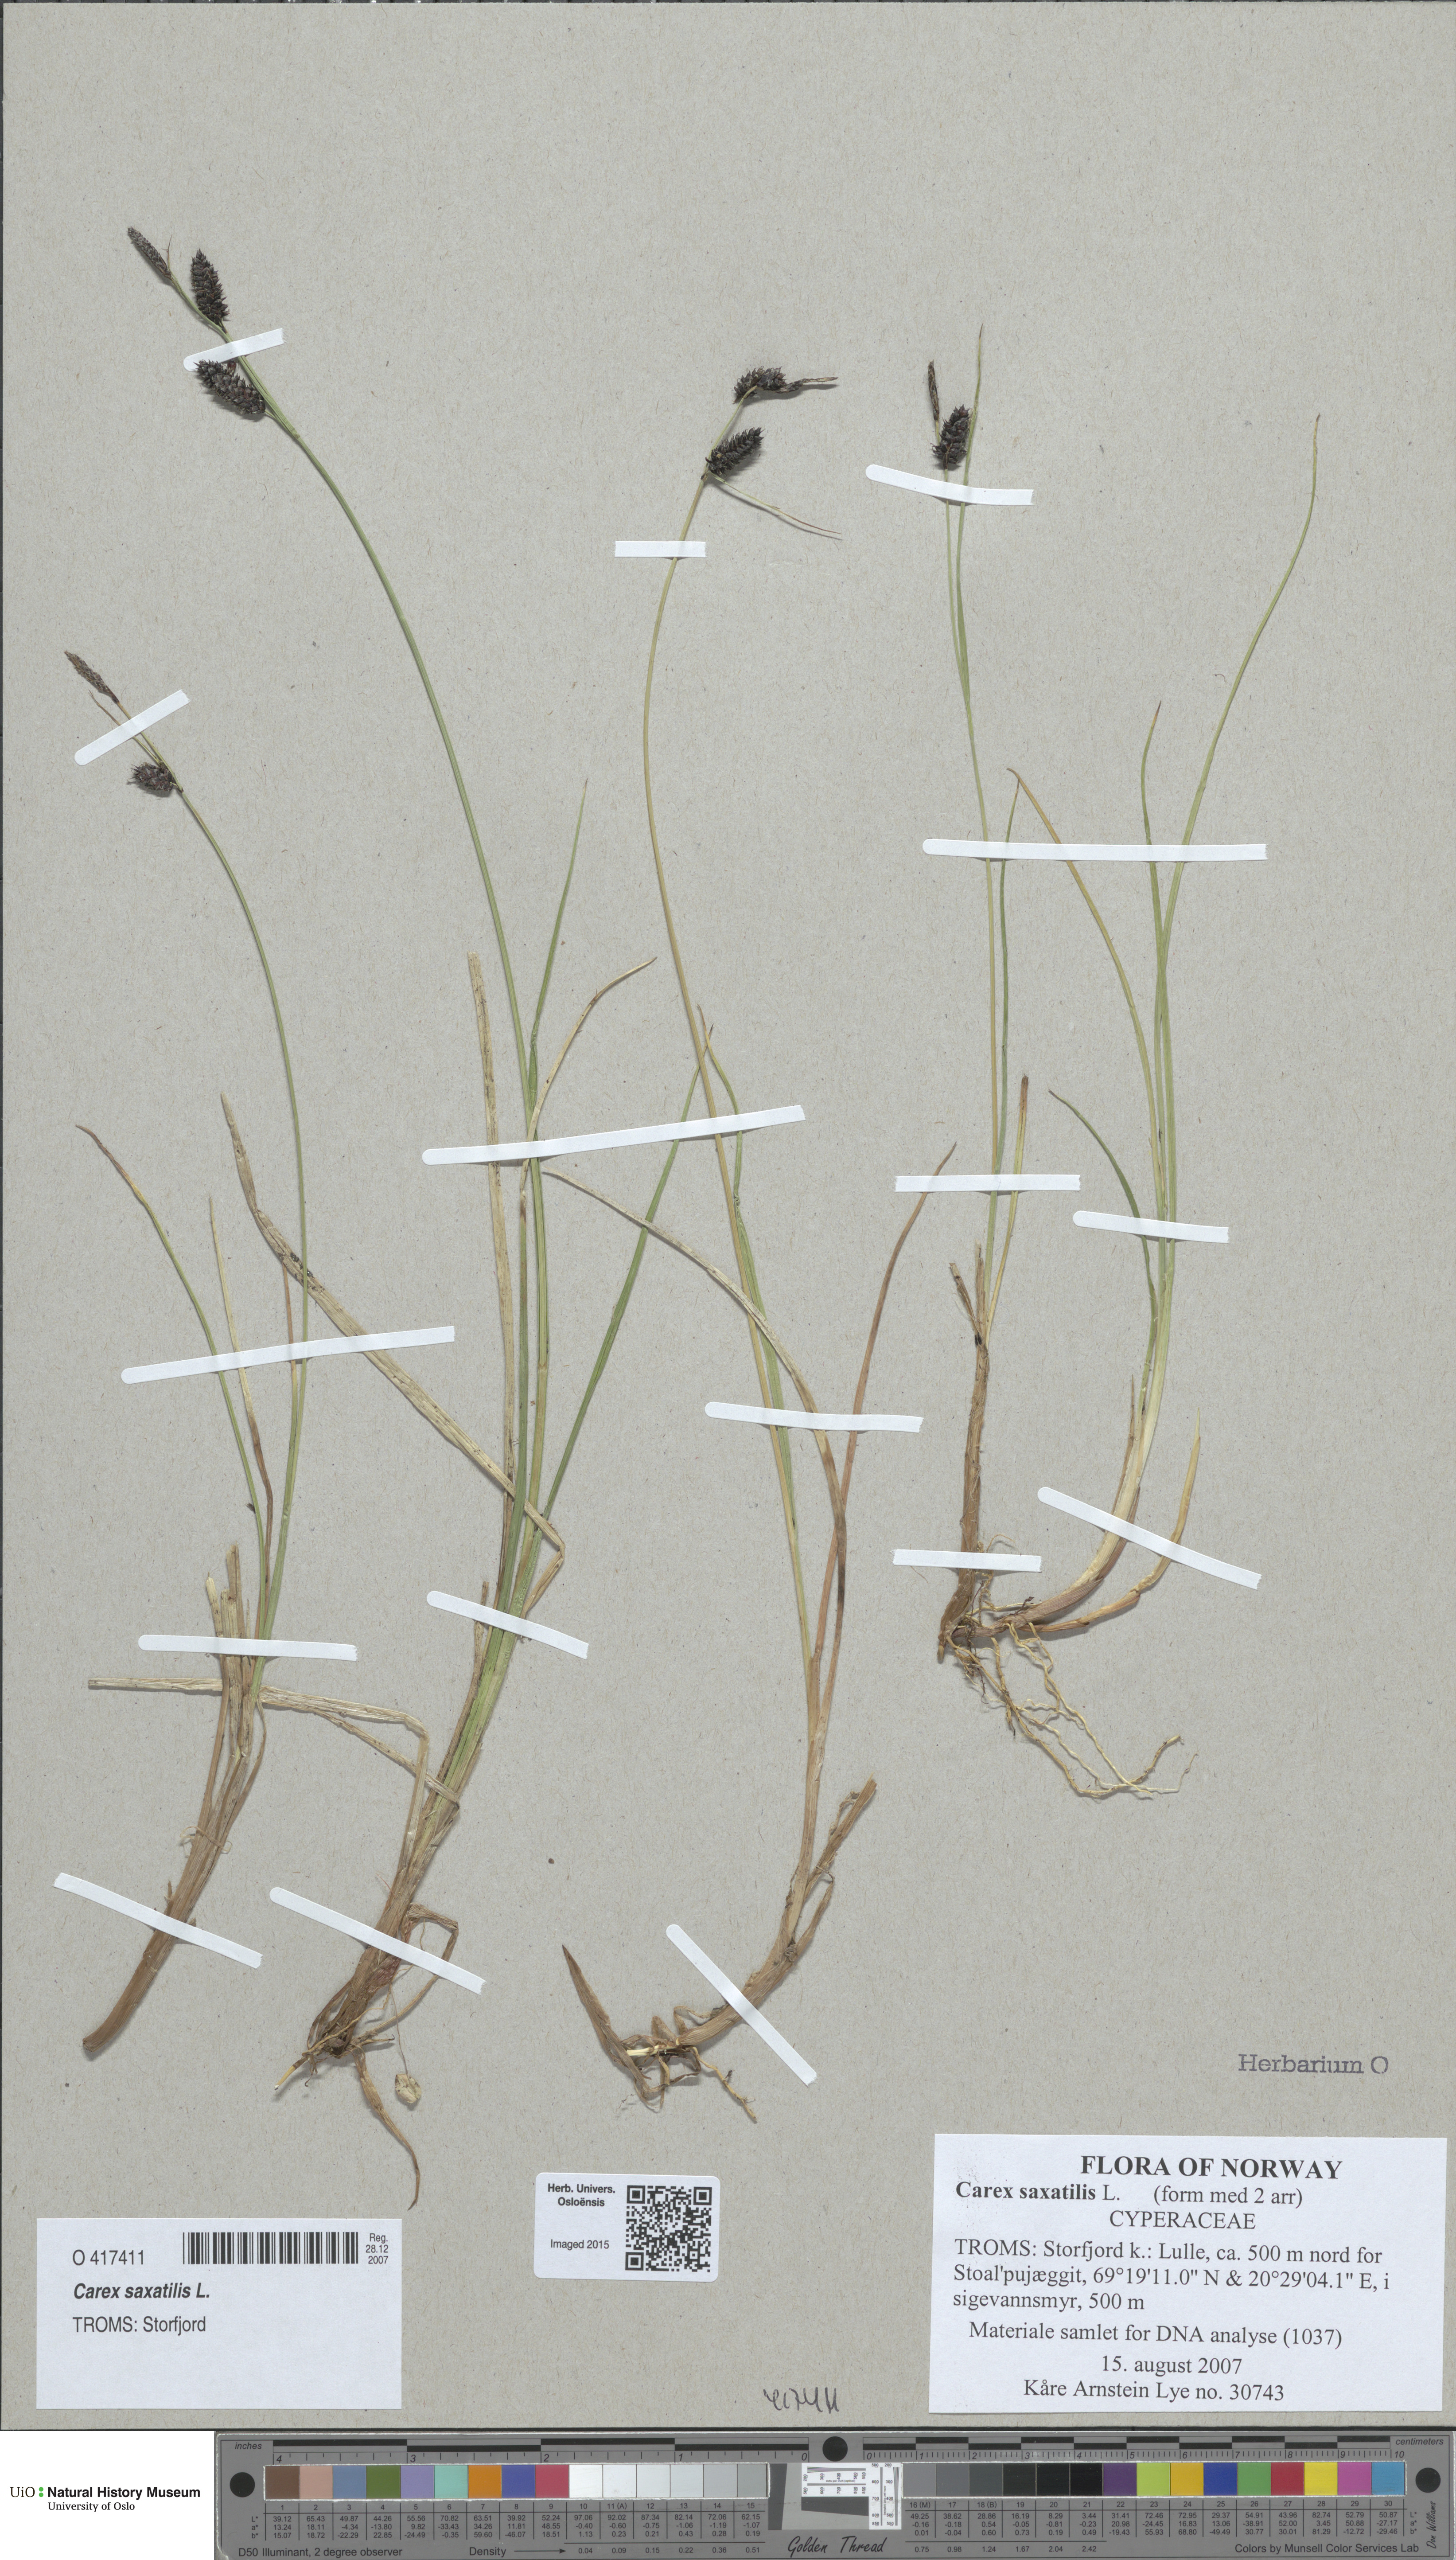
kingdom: Plantae
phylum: Tracheophyta
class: Liliopsida
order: Poales
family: Cyperaceae
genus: Carex
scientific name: Carex saxatilis
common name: Russet sedge
